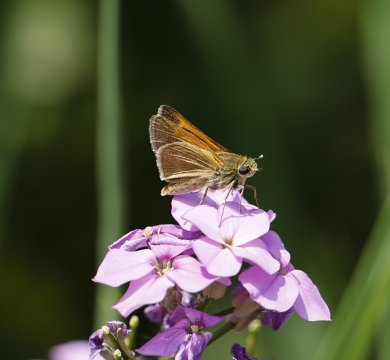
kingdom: Animalia
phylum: Arthropoda
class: Insecta
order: Lepidoptera
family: Hesperiidae
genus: Polites
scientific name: Polites themistocles
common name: Tawny-edged Skipper
